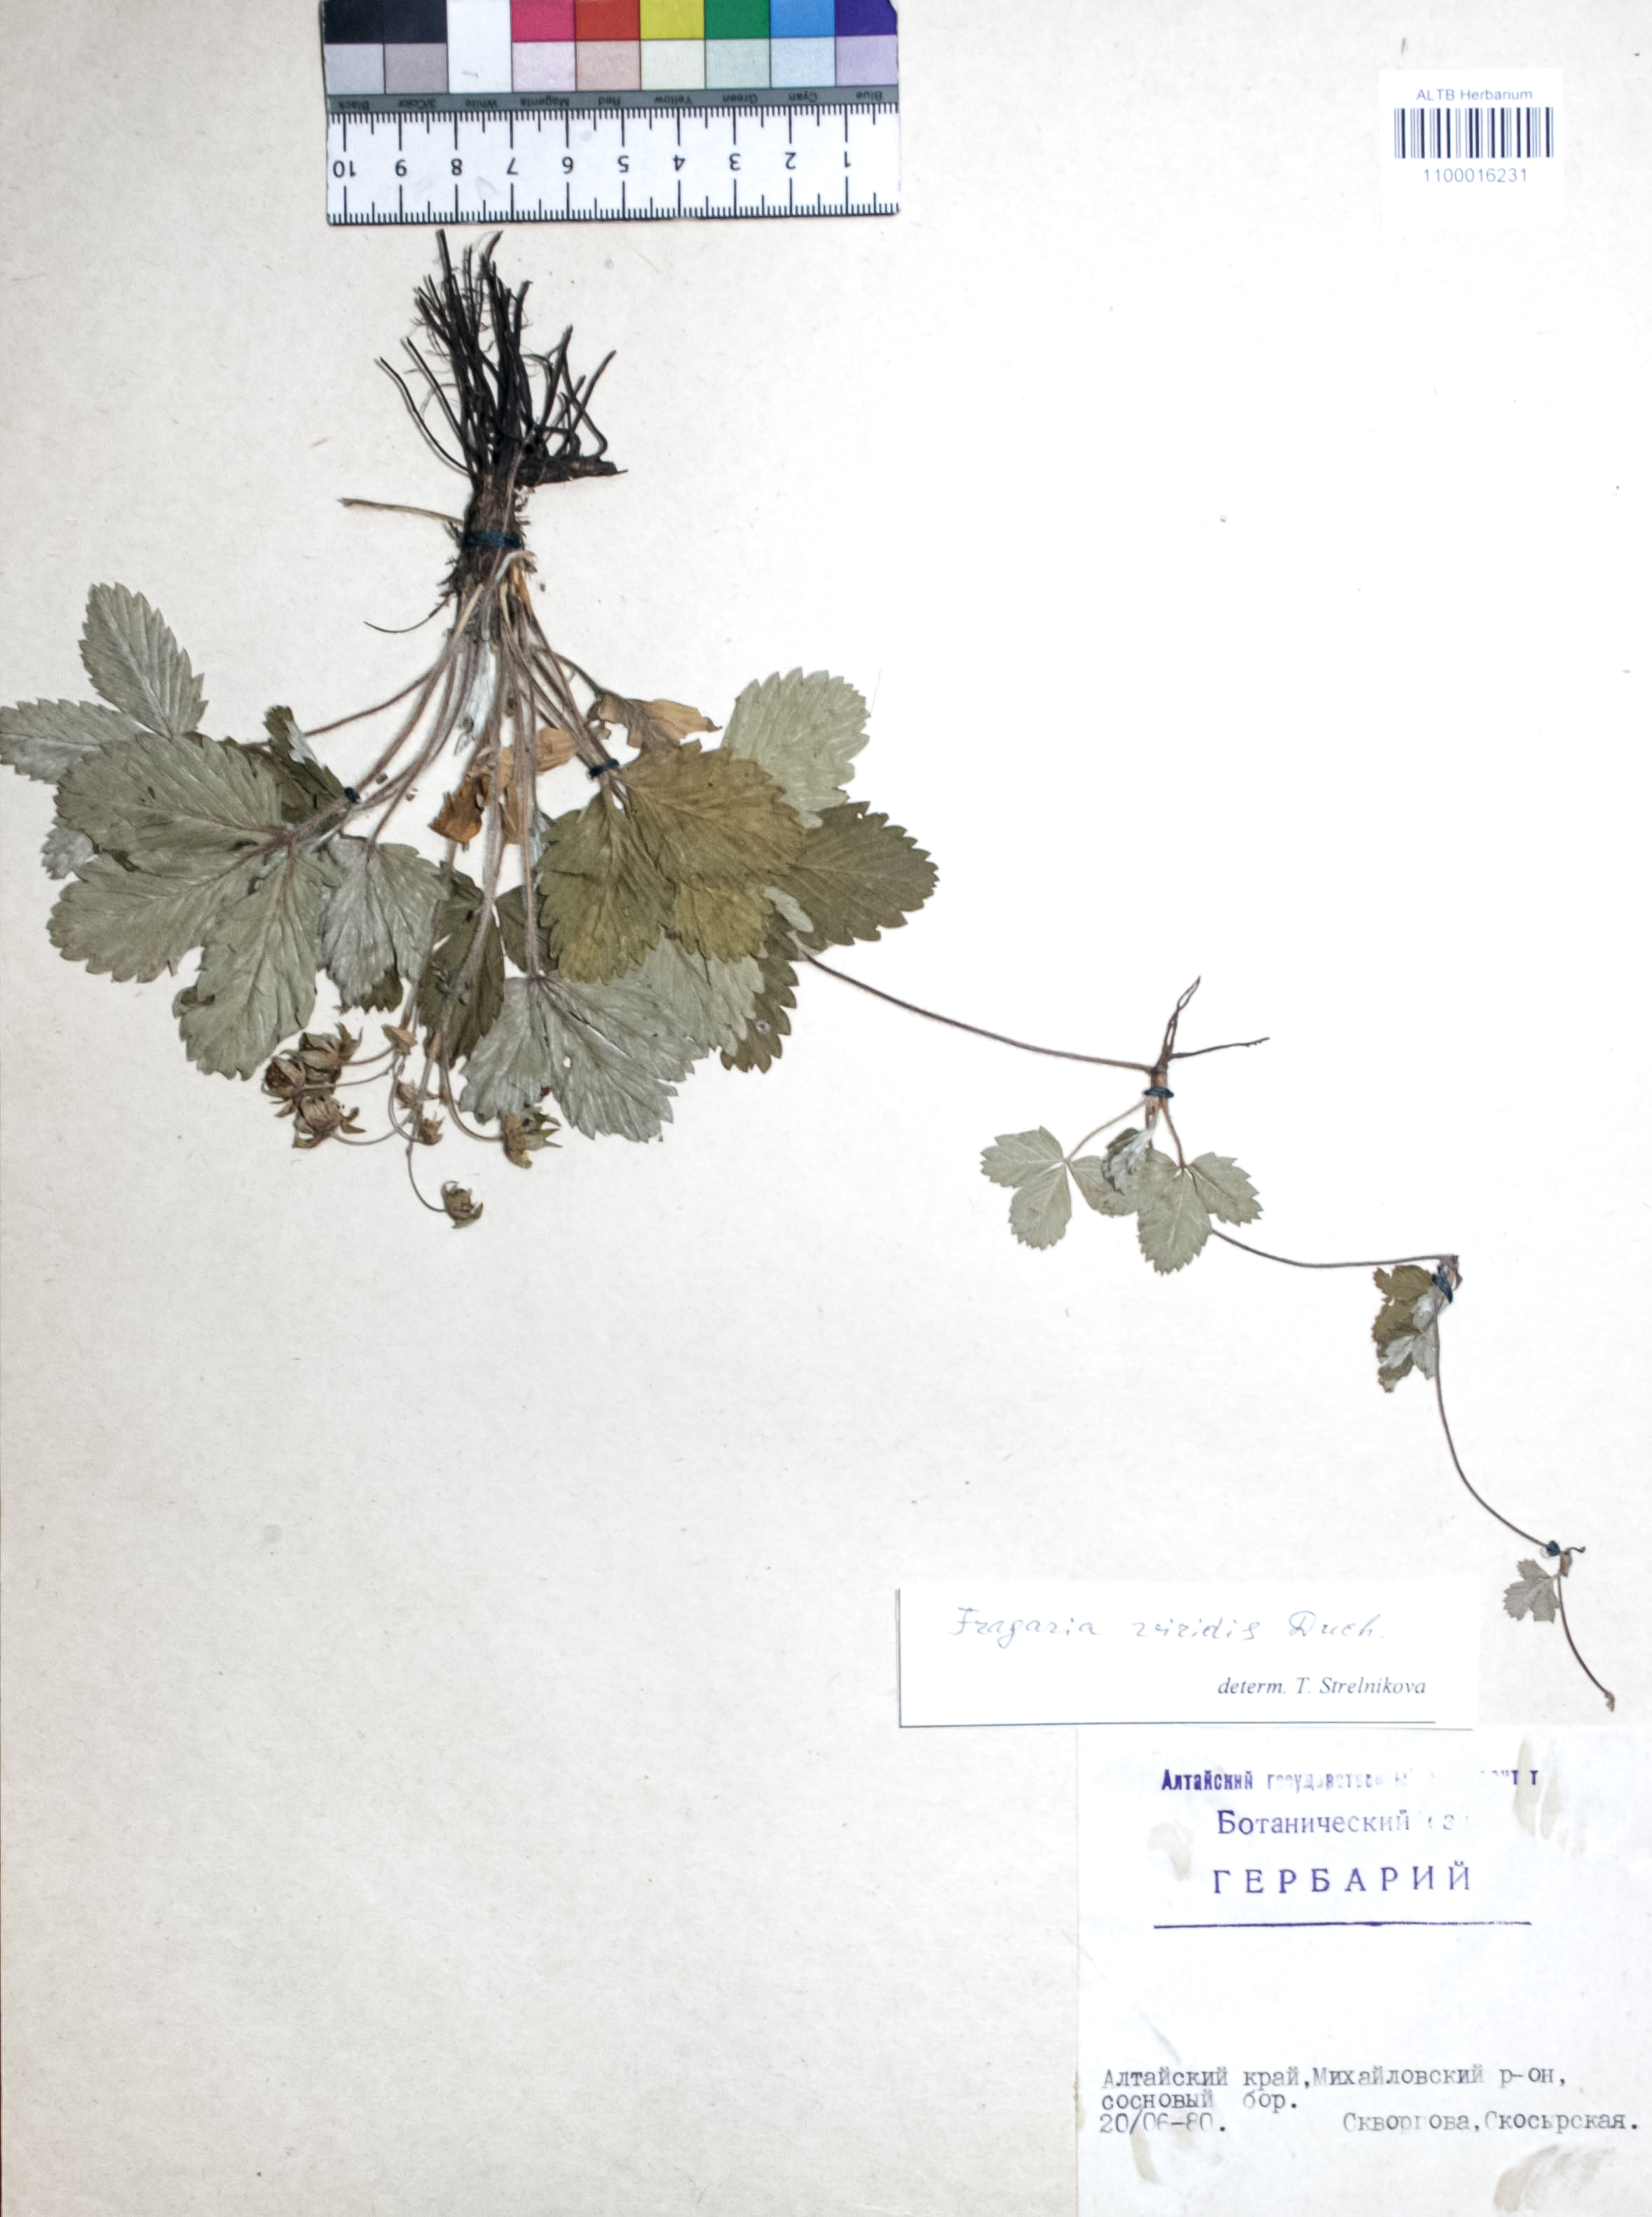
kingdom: Plantae
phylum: Tracheophyta
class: Magnoliopsida
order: Rosales
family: Rosaceae
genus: Fragaria
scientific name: Fragaria viridis
